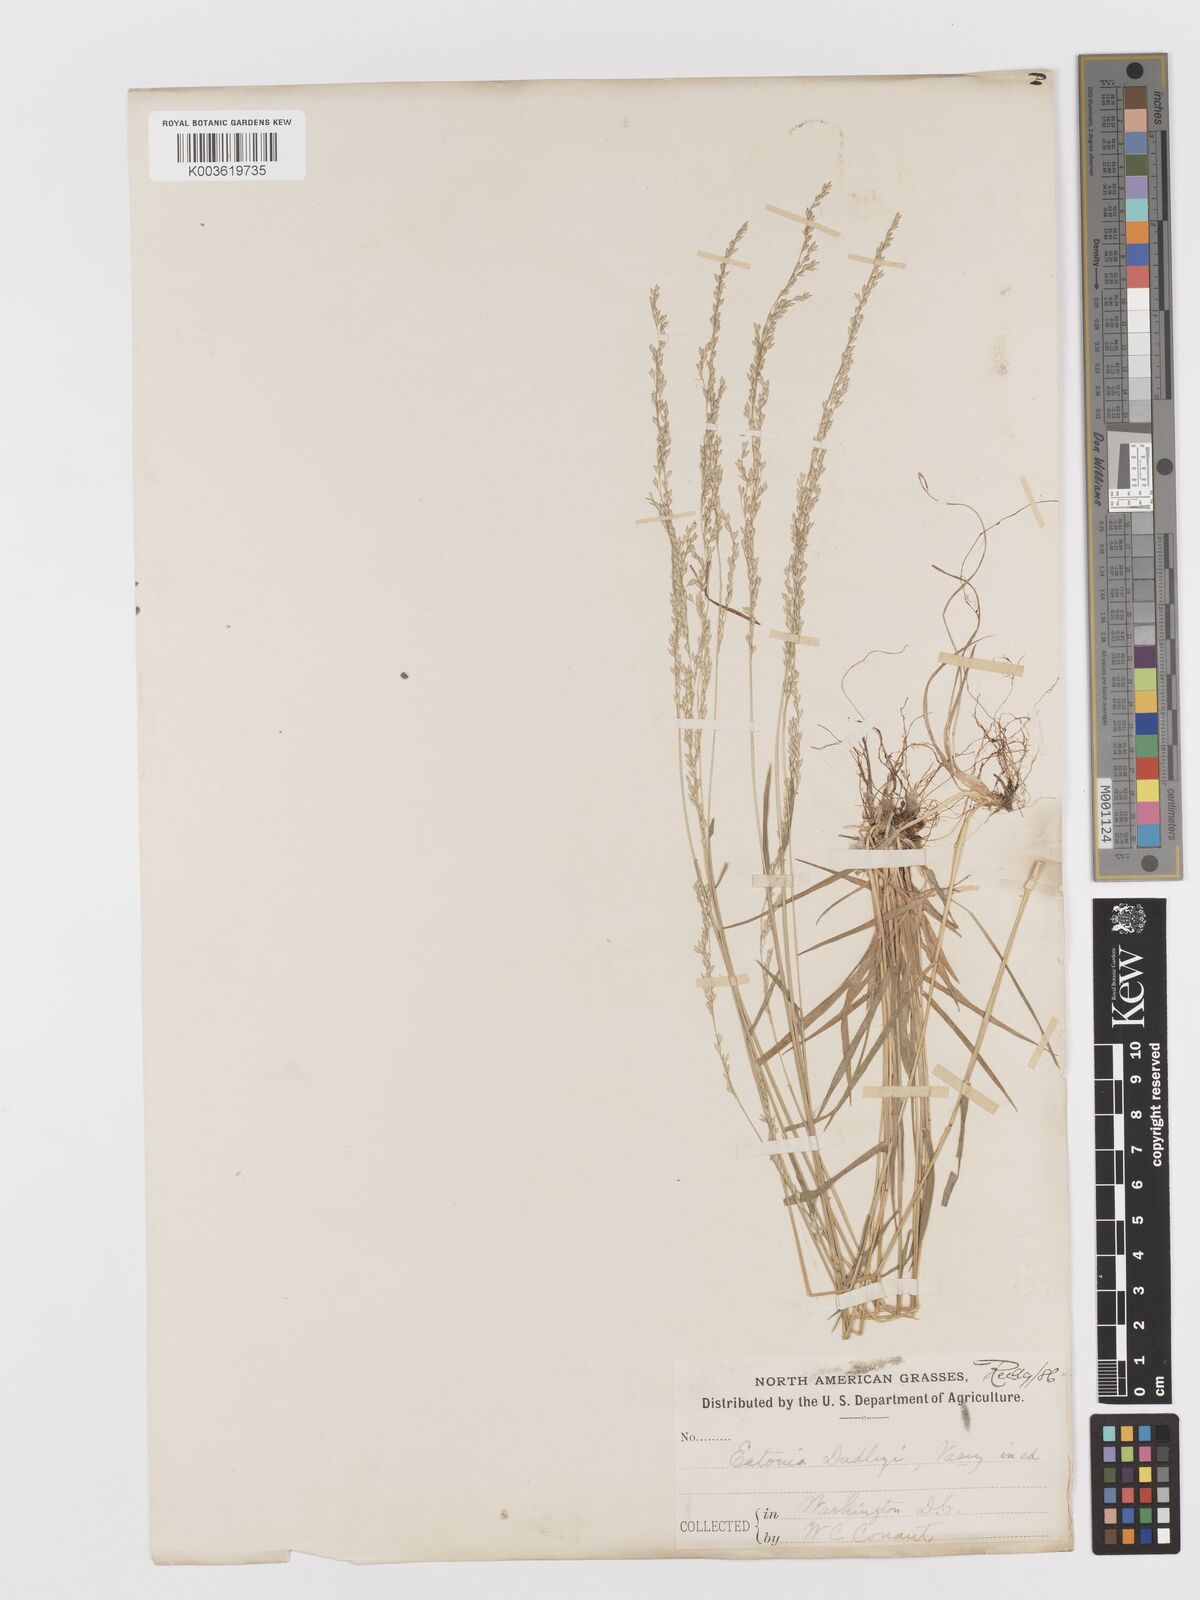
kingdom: Plantae
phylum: Tracheophyta
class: Liliopsida
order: Poales
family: Poaceae
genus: Sphenopholis
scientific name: Sphenopholis nitida
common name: Shiny wedgegrass
